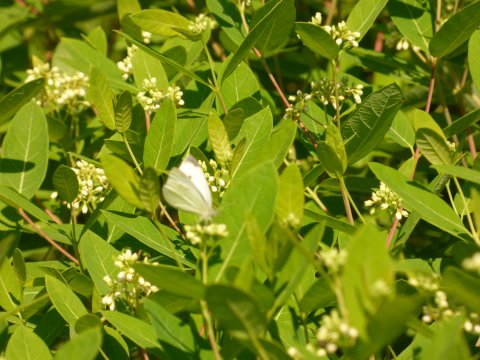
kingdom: Animalia
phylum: Arthropoda
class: Insecta
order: Lepidoptera
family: Pieridae
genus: Pieris
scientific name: Pieris rapae
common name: Cabbage White
